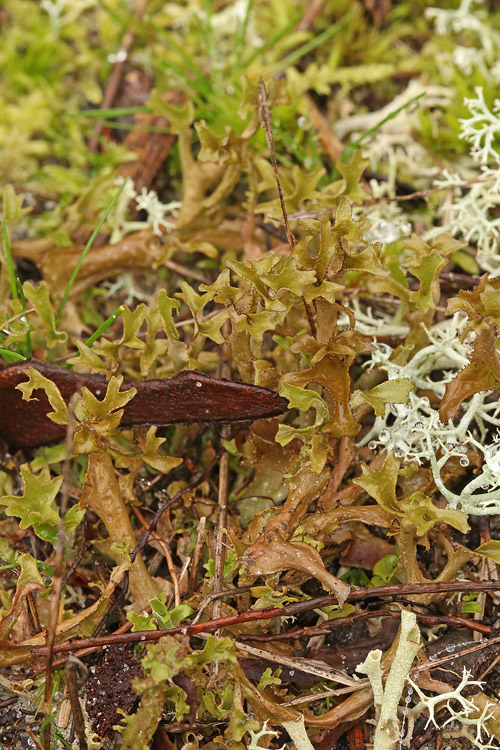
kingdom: Fungi
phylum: Ascomycota
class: Lecanoromycetes
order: Lecanorales
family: Parmeliaceae
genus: Cetraria
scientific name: Cetraria islandica
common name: islandsk kruslav
